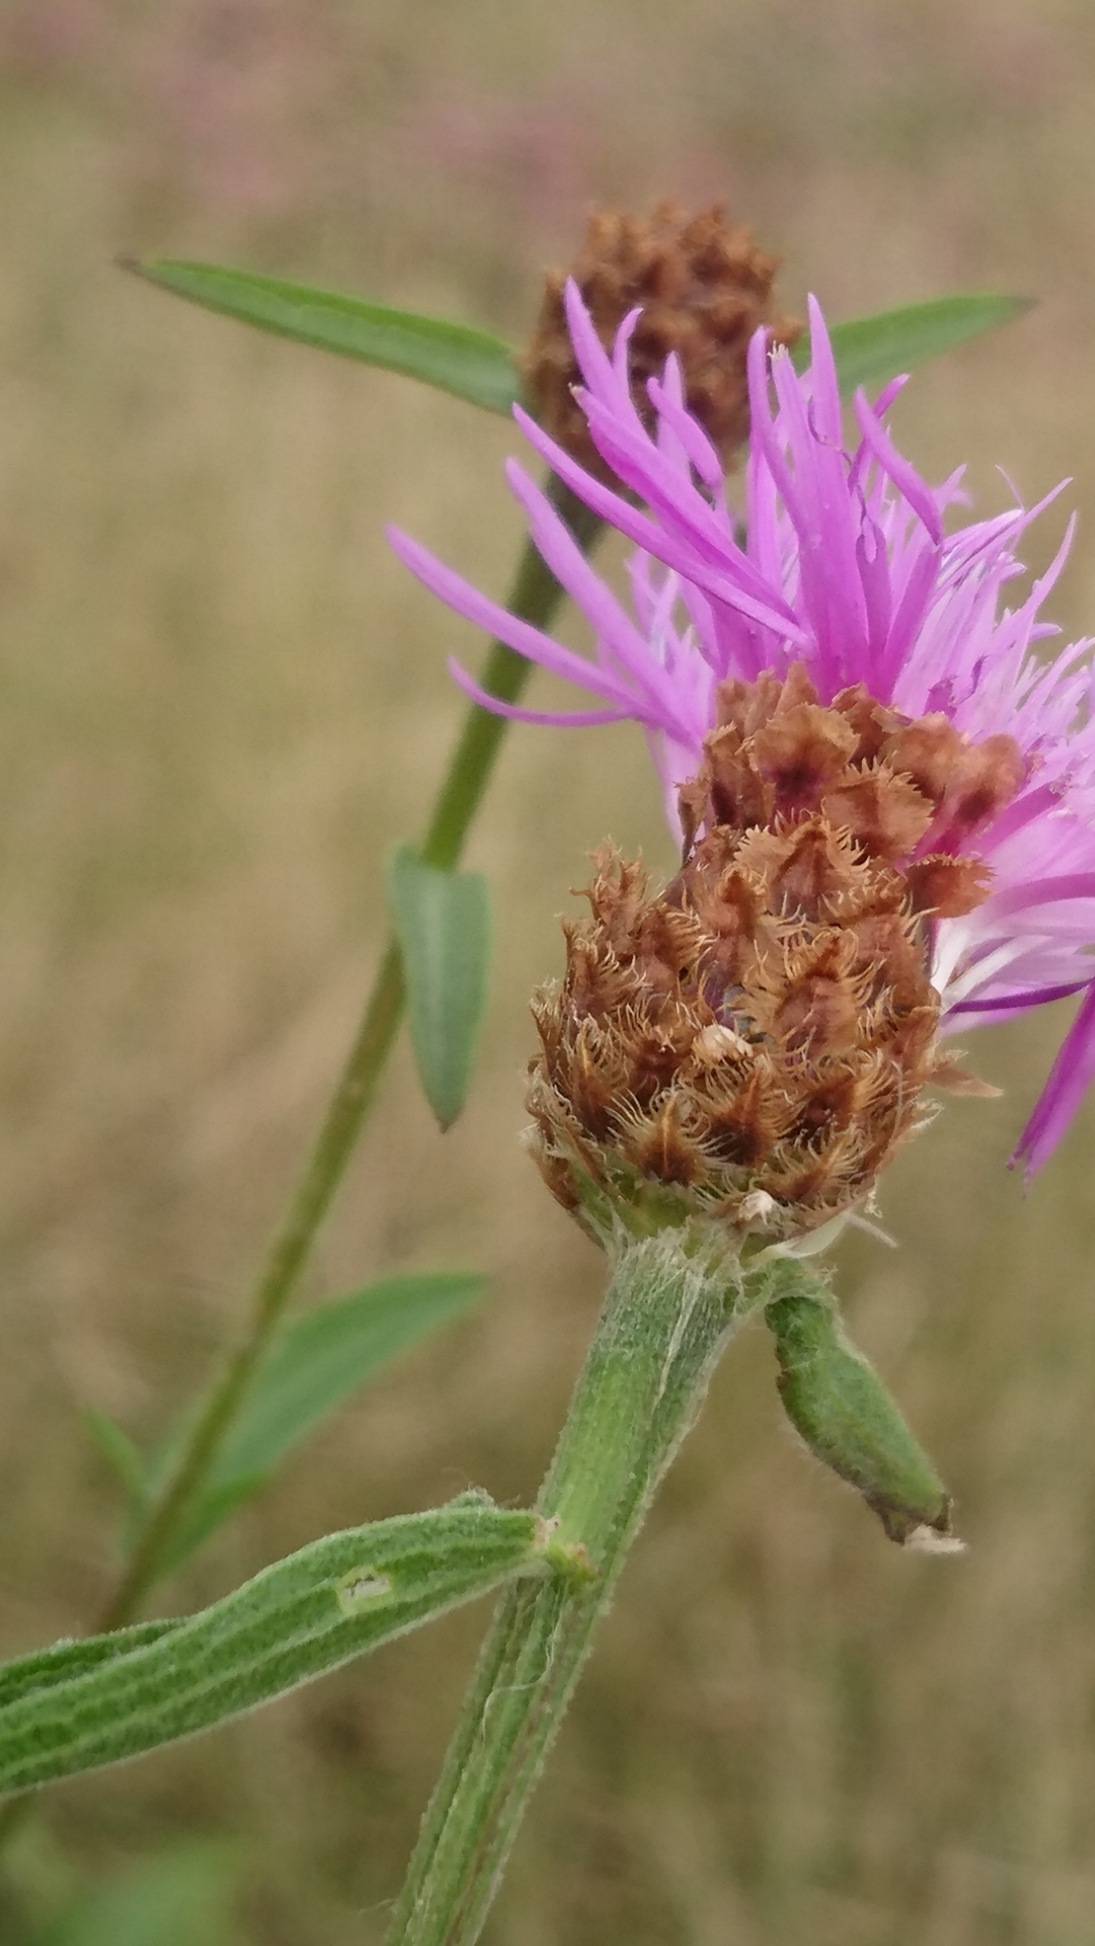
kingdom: Plantae
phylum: Tracheophyta
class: Magnoliopsida
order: Asterales
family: Asteraceae
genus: Centaurea
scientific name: Centaurea jacea
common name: Almindelig knopurt
